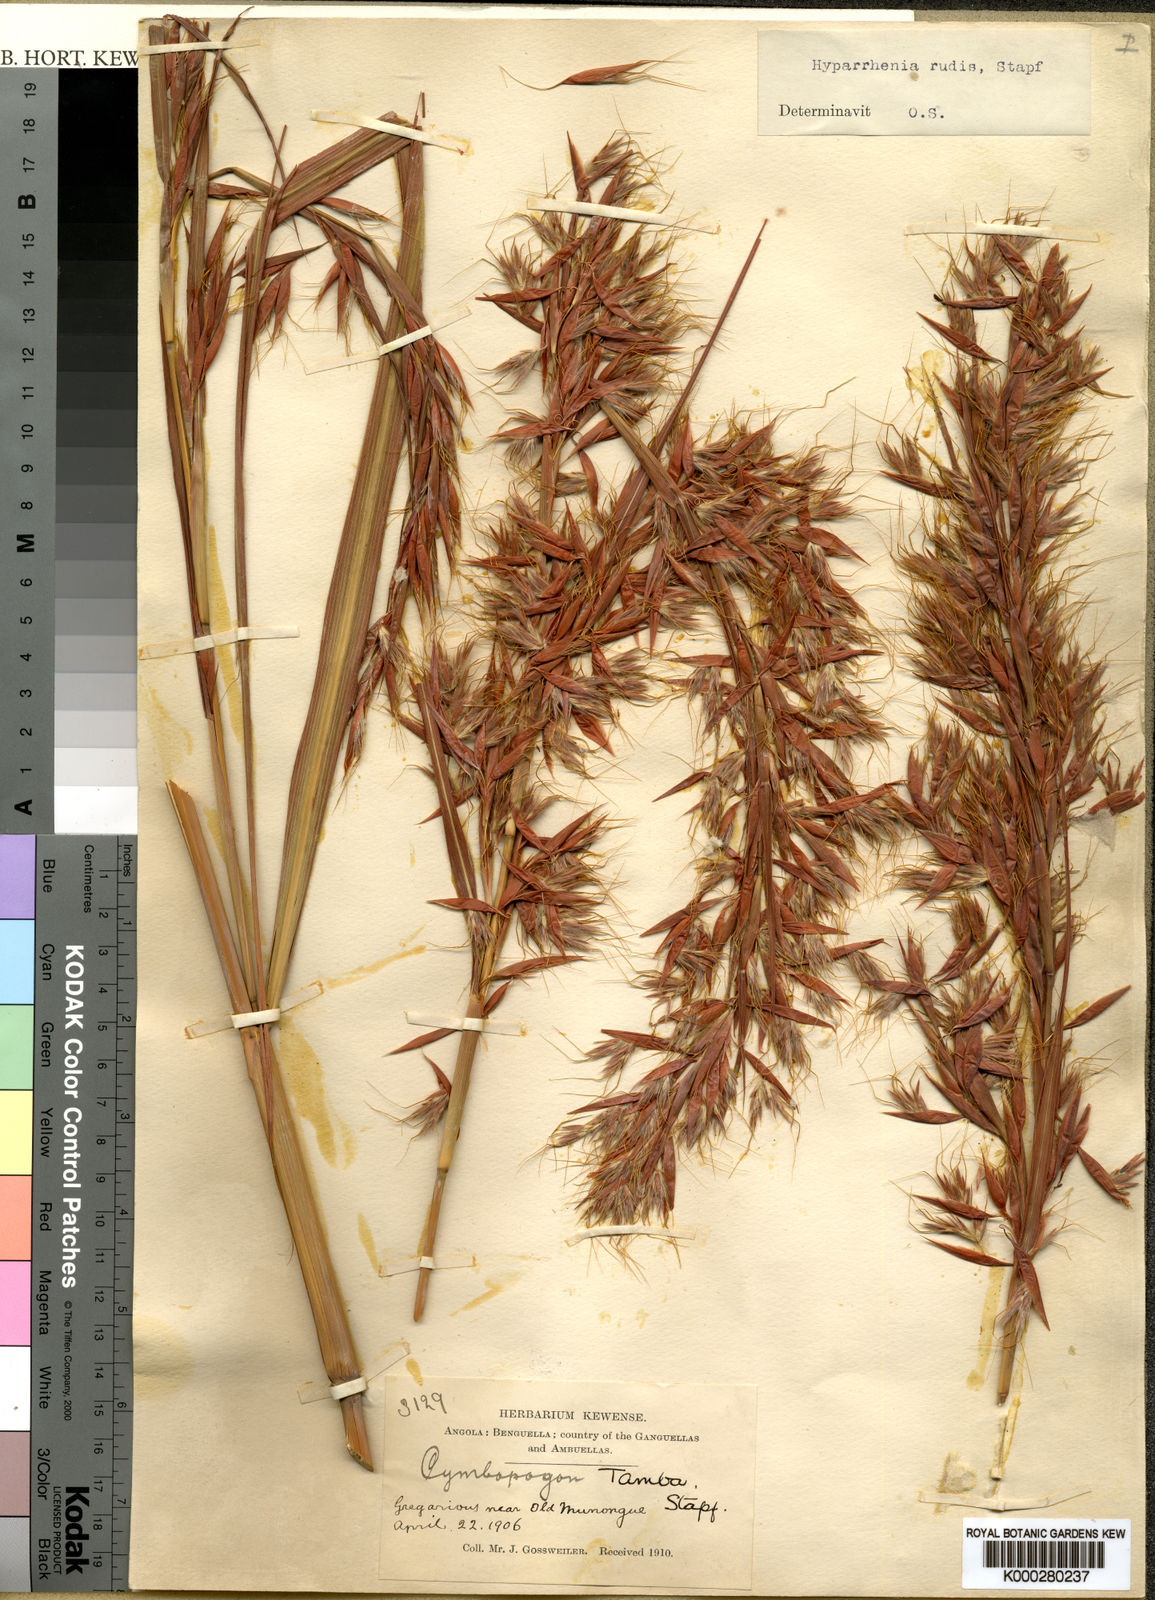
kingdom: Plantae
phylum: Tracheophyta
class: Liliopsida
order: Poales
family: Poaceae
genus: Hyparrhenia
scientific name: Hyparrhenia rudis
